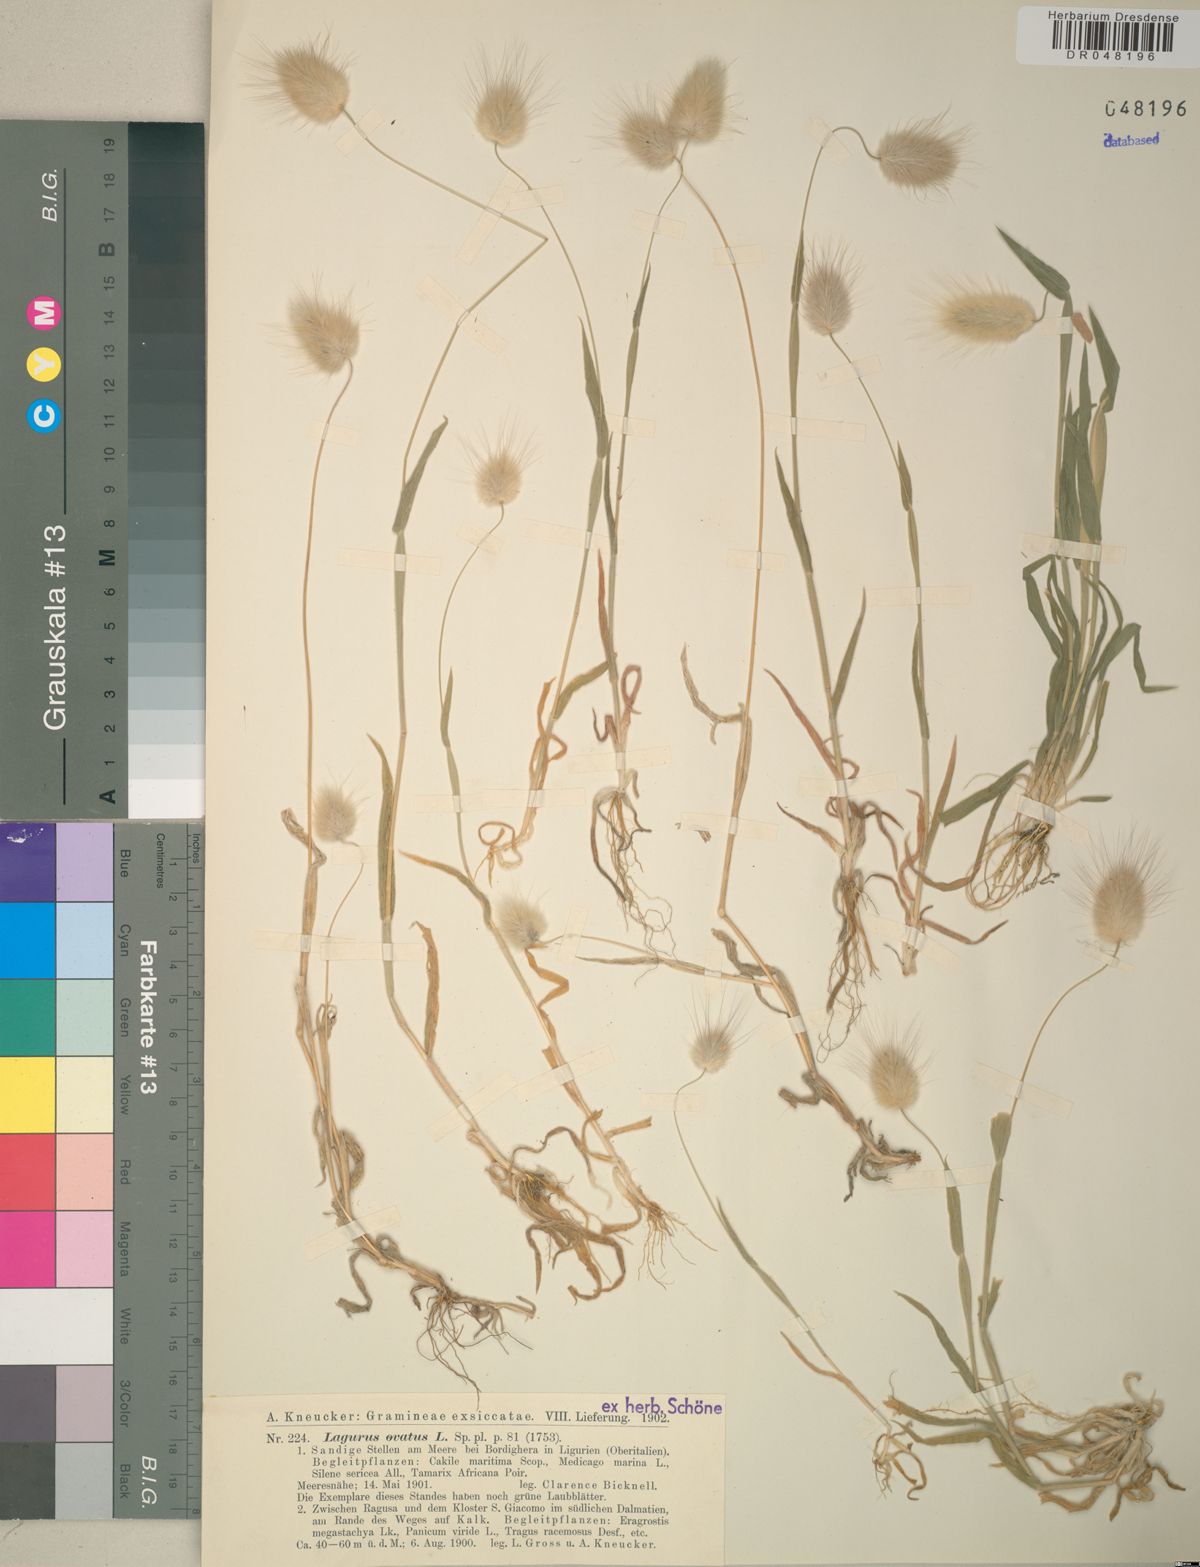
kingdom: Plantae
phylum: Tracheophyta
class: Liliopsida
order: Poales
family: Poaceae
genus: Lagurus
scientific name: Lagurus ovatus
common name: Hare's-tail
